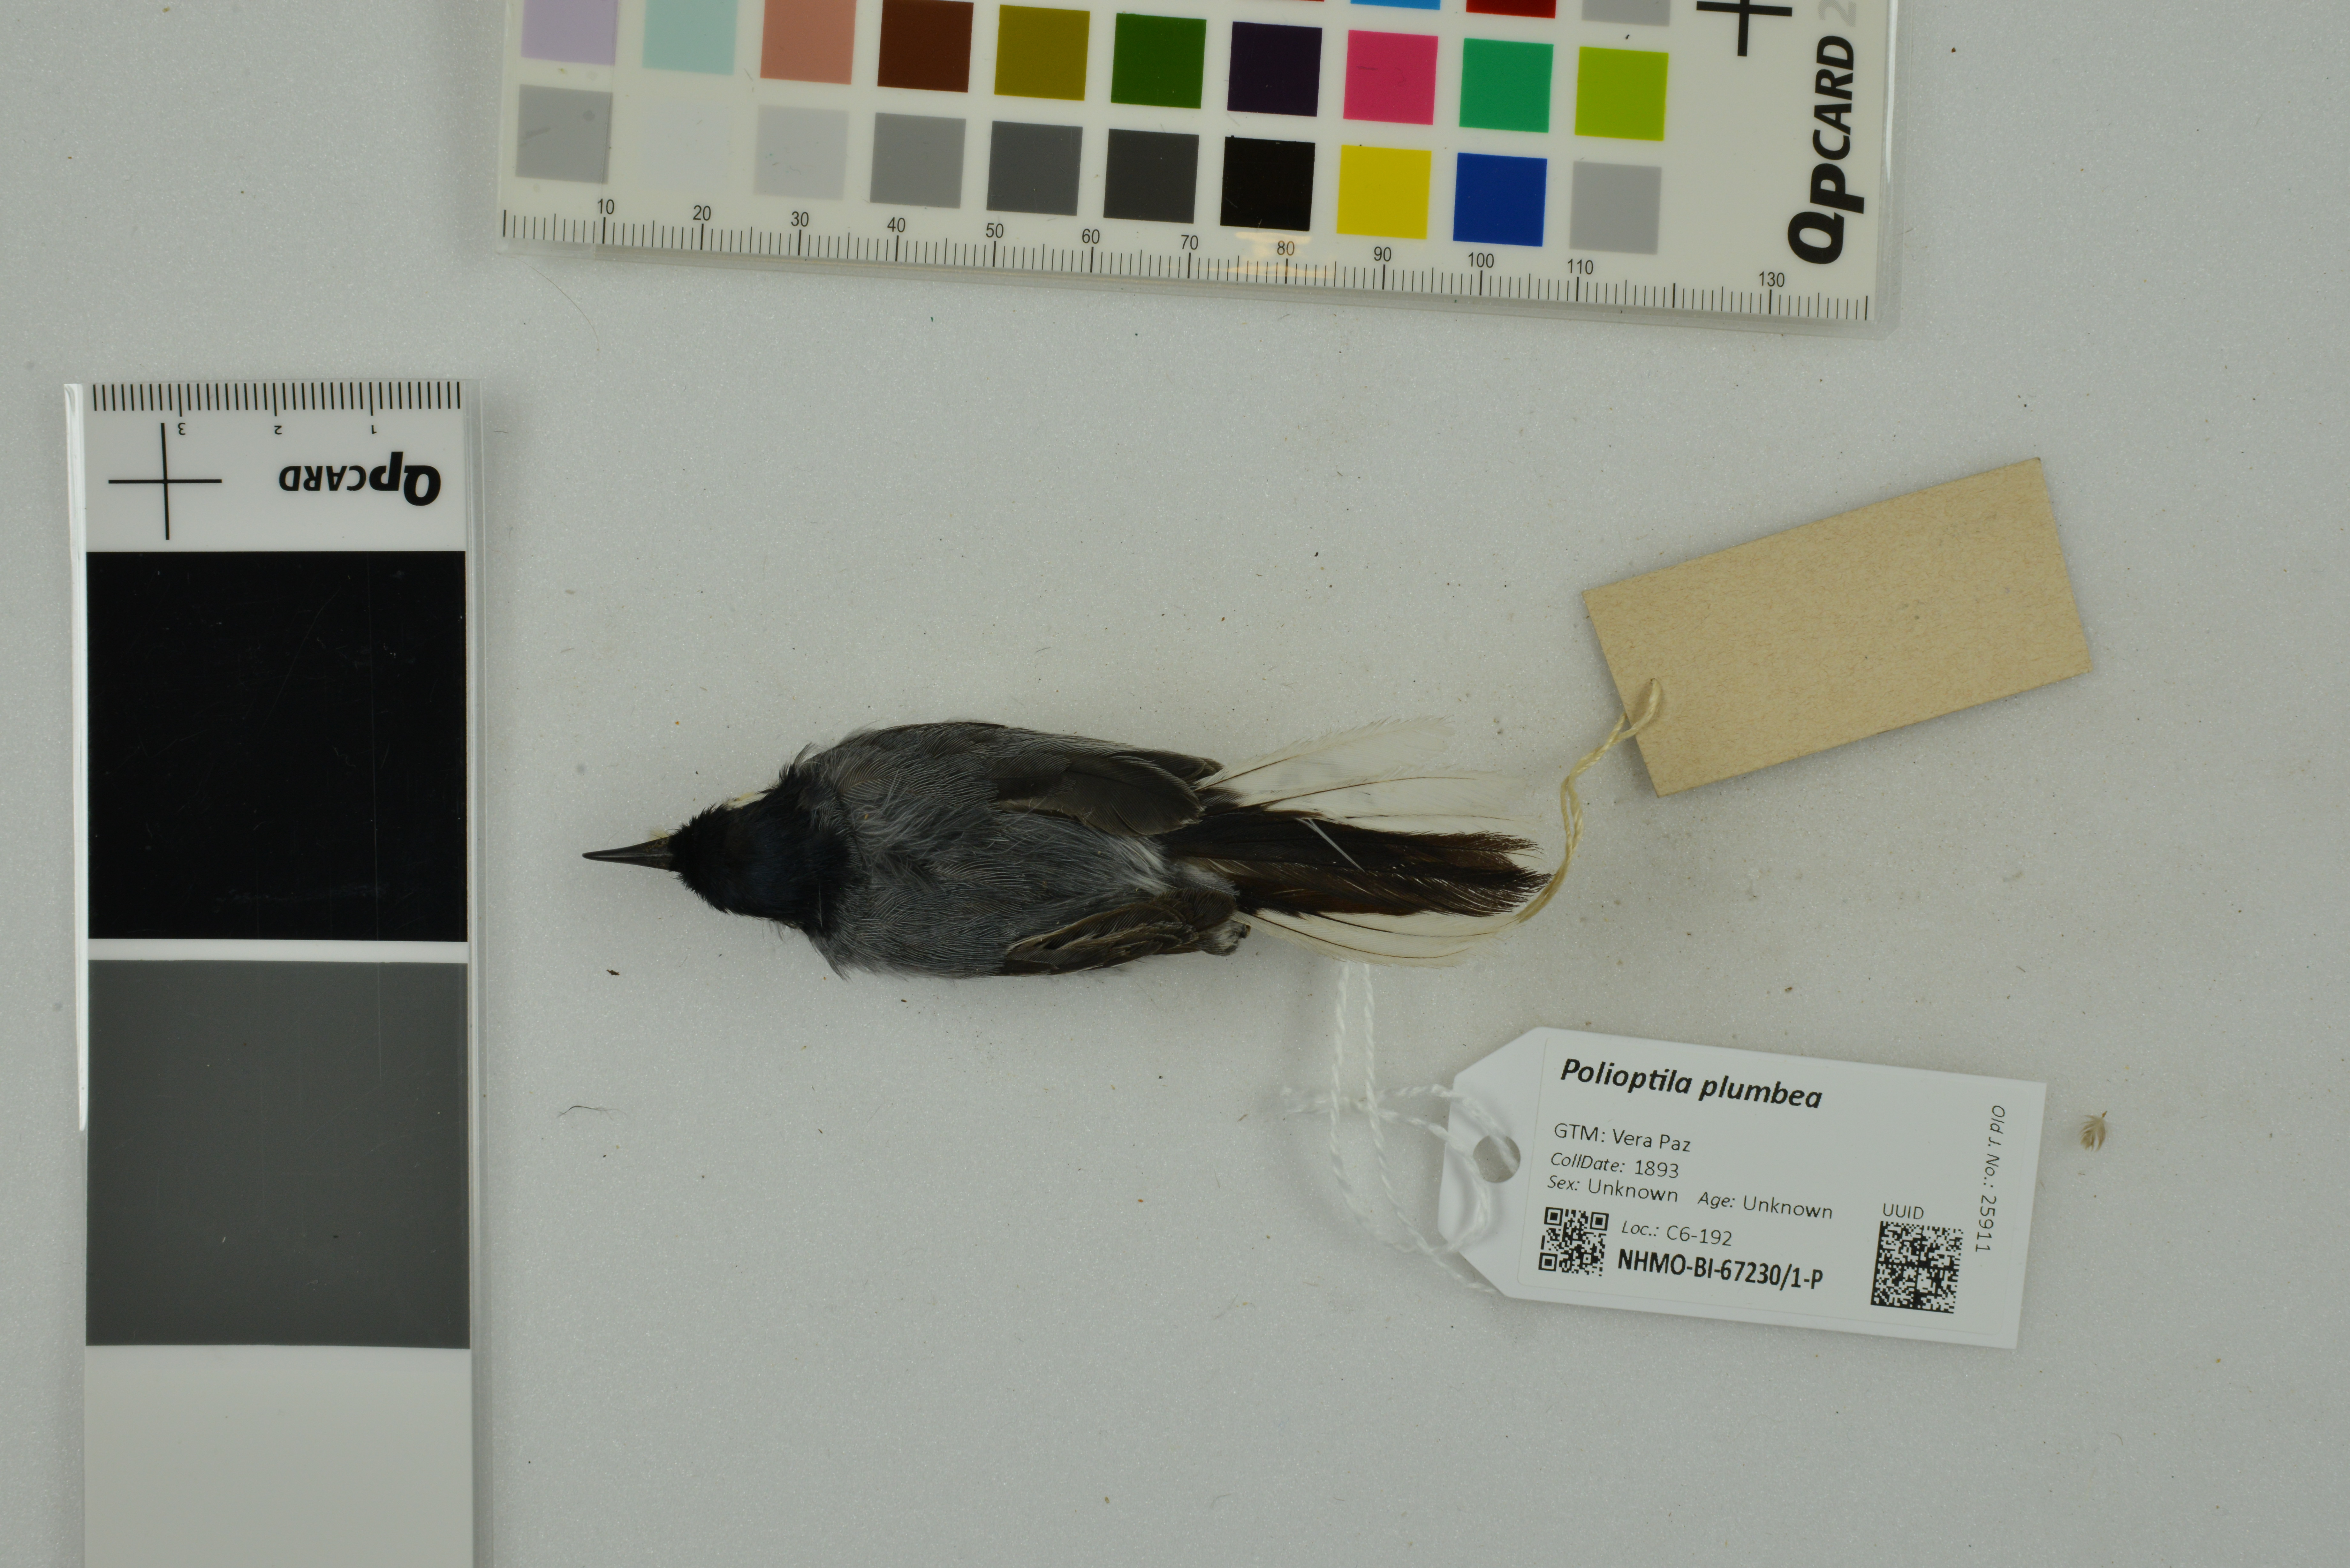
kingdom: Animalia
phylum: Chordata
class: Aves
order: Passeriformes
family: Polioptilidae
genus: Polioptila
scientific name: Polioptila plumbea
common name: Tropical gnatcatcher
